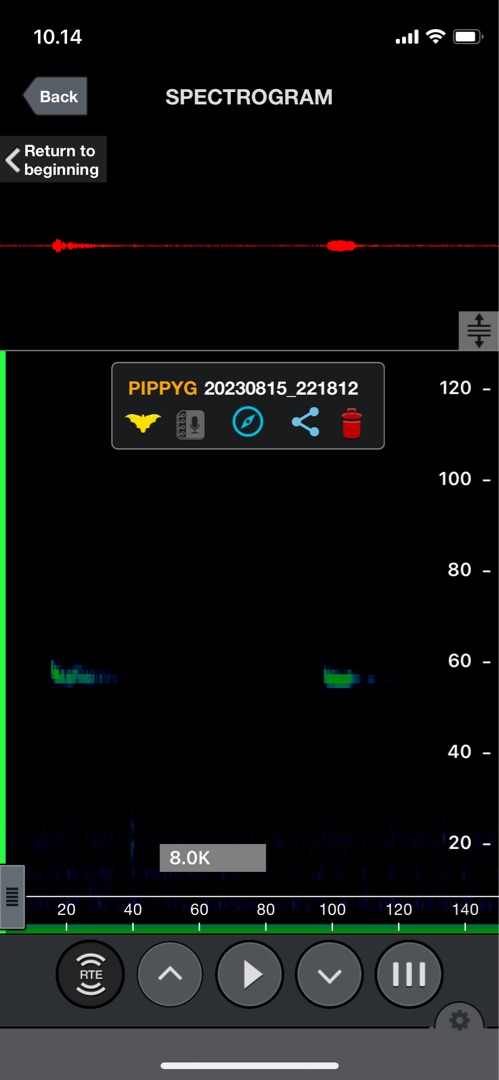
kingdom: Animalia
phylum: Chordata
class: Mammalia
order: Chiroptera
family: Vespertilionidae
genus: Pipistrellus
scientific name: Pipistrellus pygmaeus
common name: Dværgflagermus
